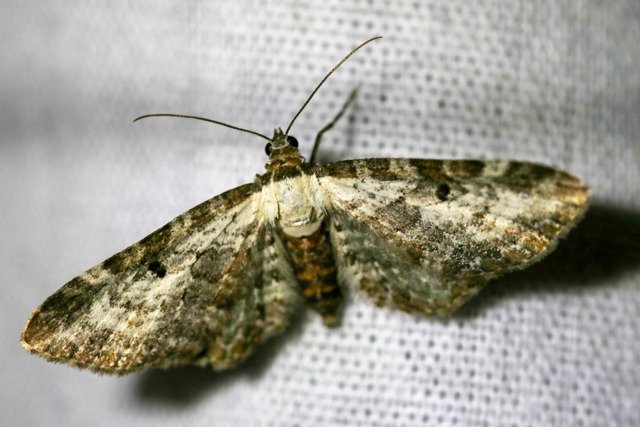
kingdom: Animalia
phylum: Arthropoda
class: Insecta
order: Lepidoptera
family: Geometridae
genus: Eupithecia
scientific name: Eupithecia succenturiata
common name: Bynke-dværgmåler
